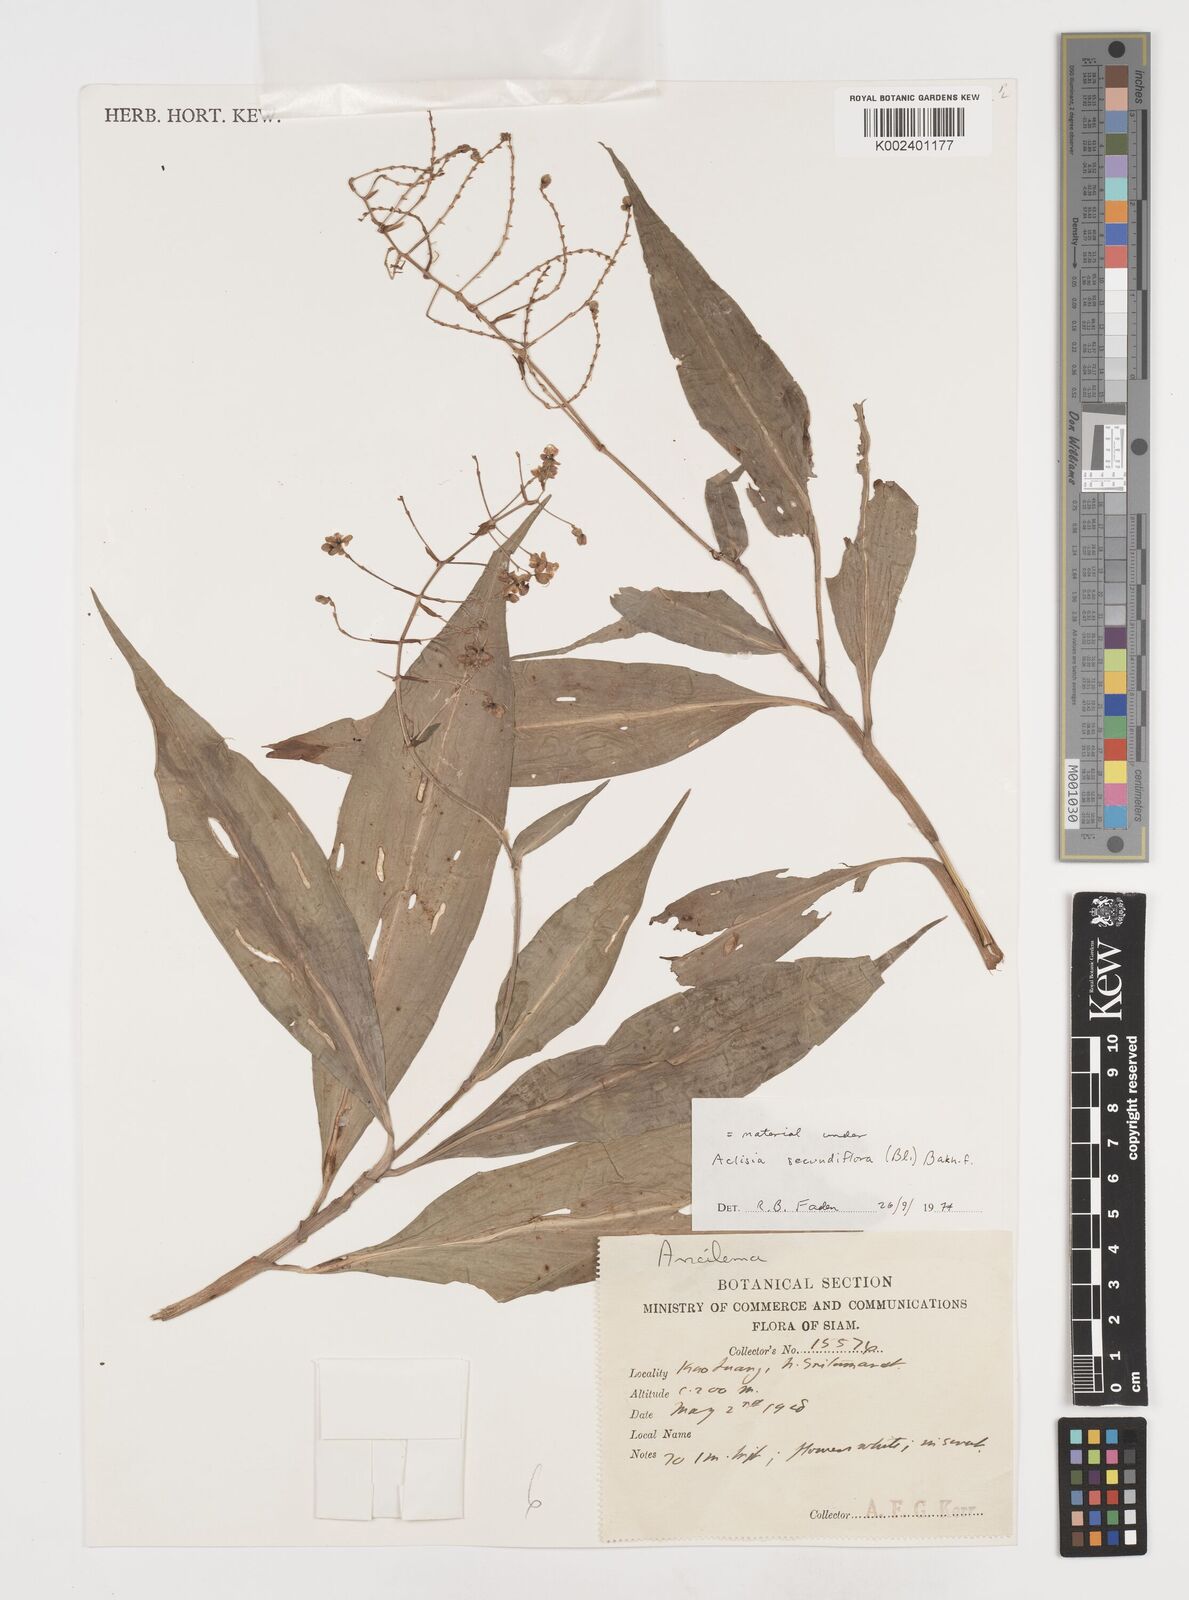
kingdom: Plantae
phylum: Tracheophyta
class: Liliopsida
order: Commelinales
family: Commelinaceae
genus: Pollia
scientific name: Pollia secundiflora
